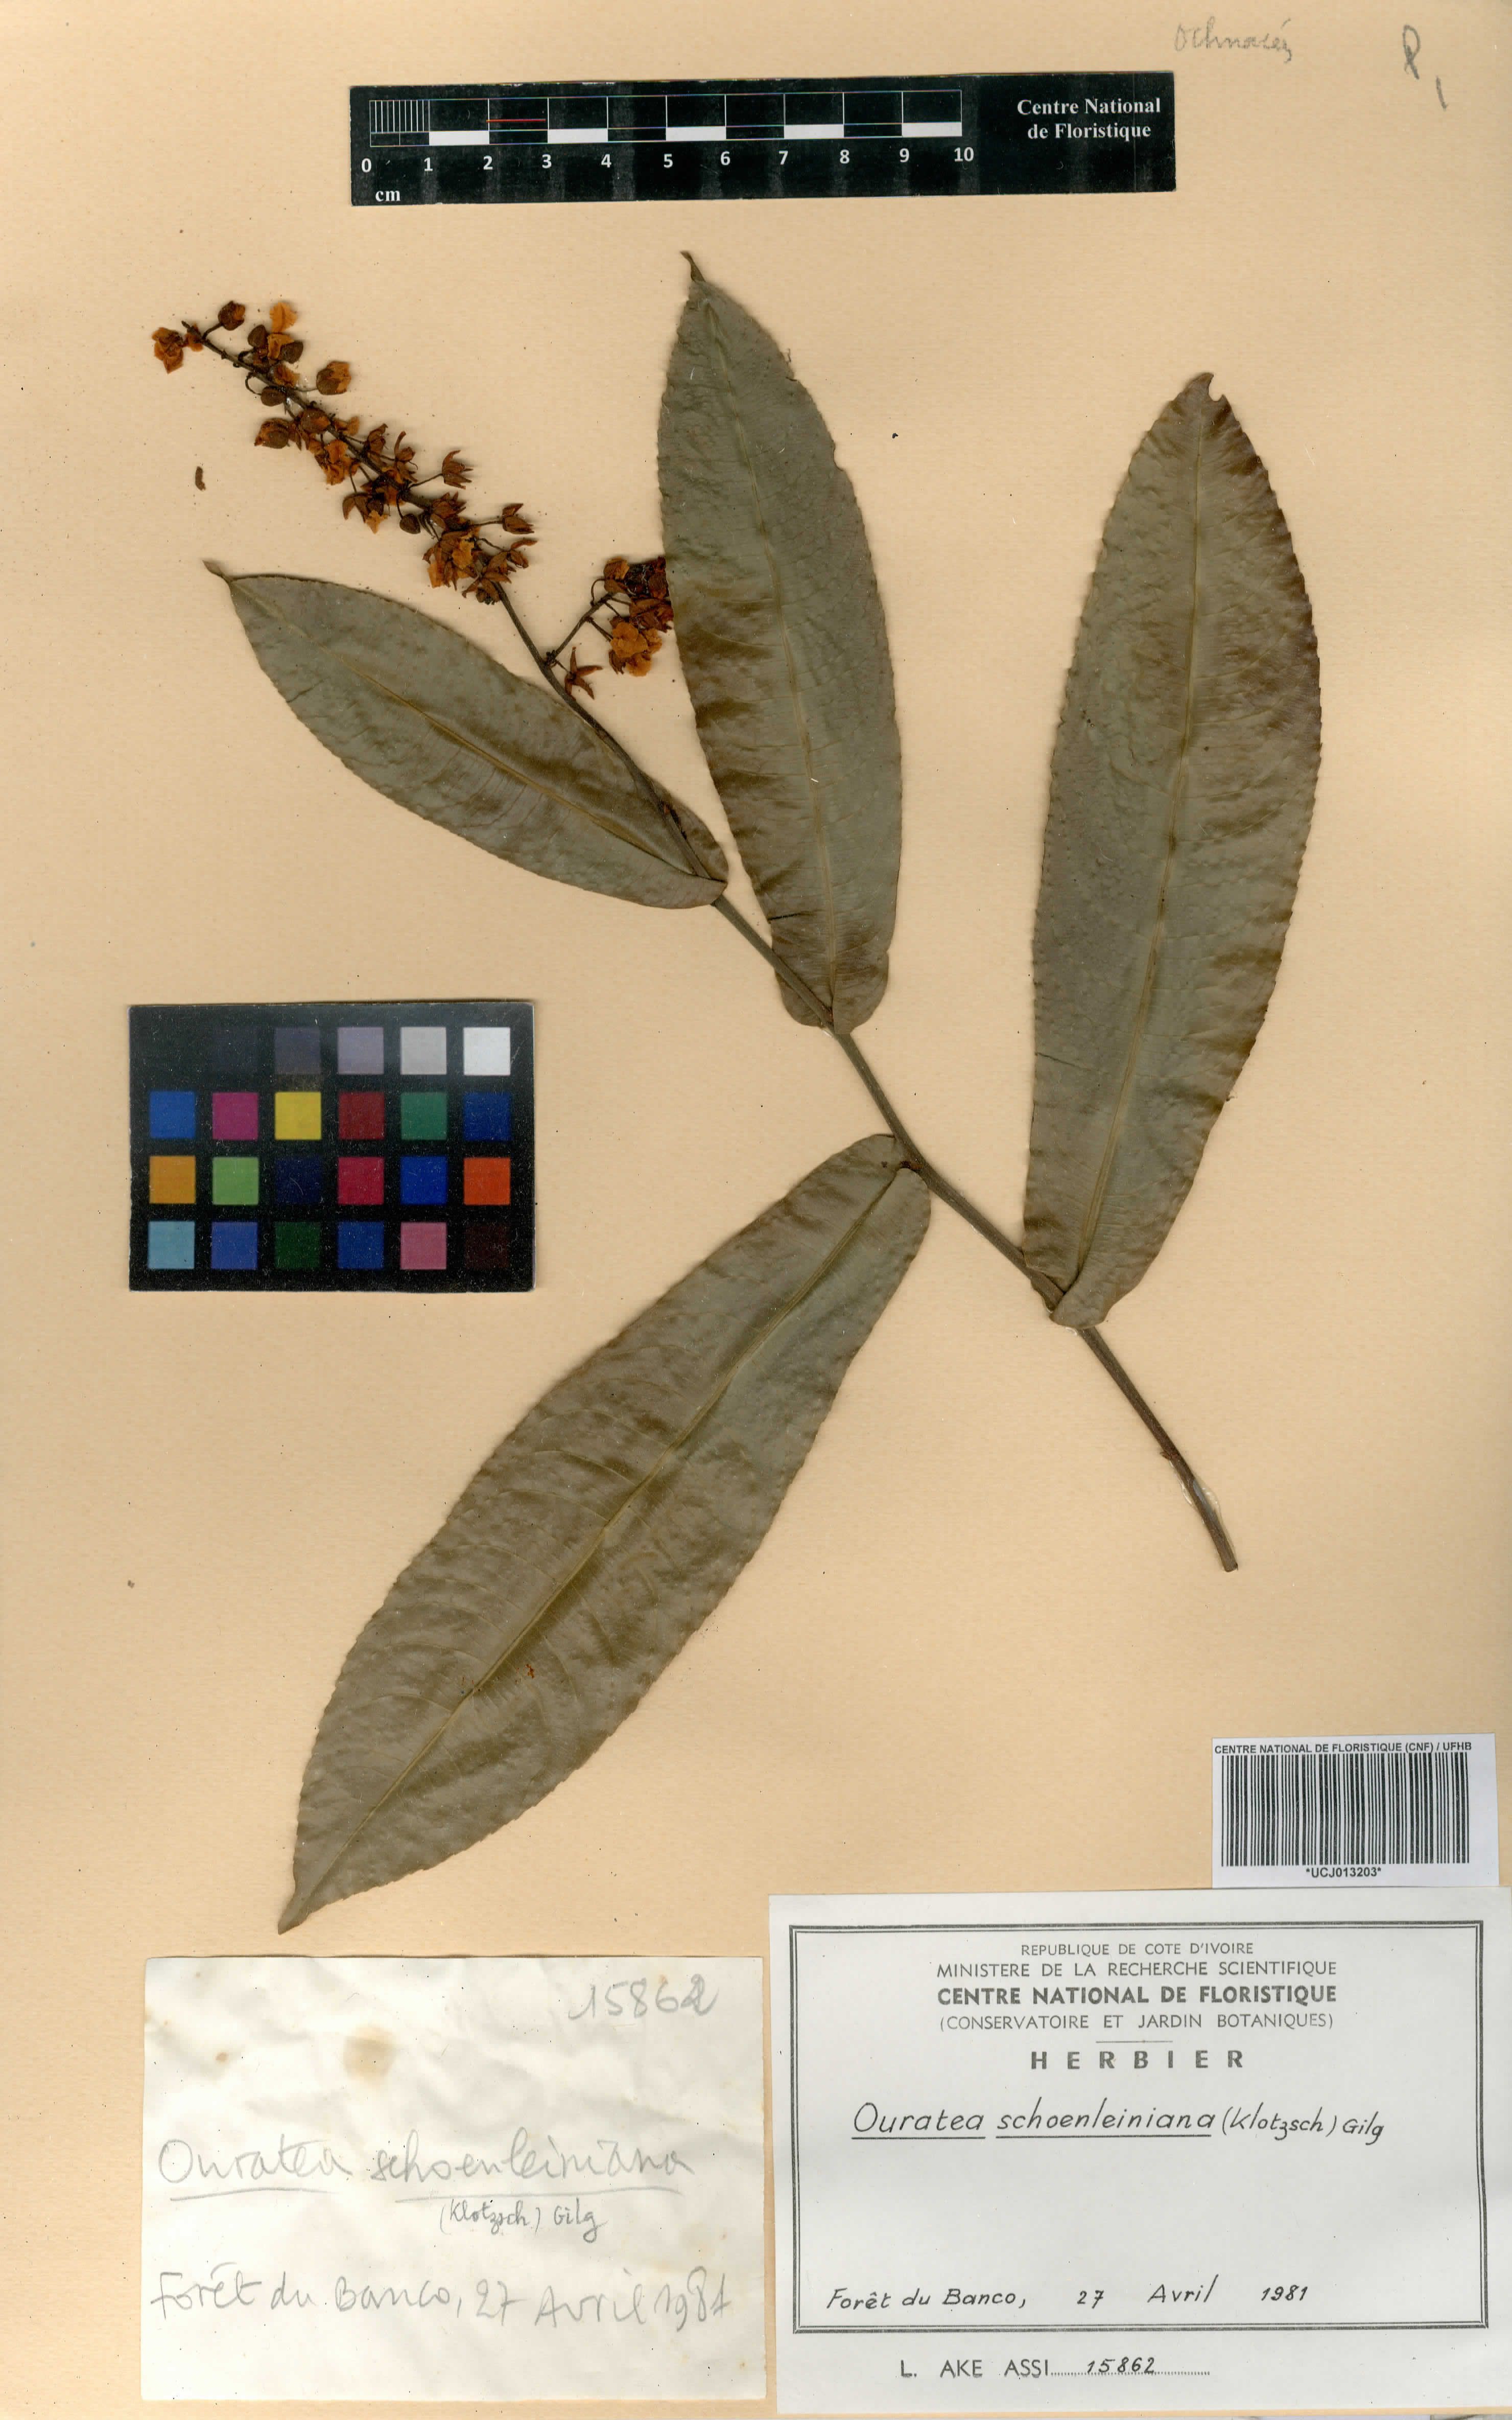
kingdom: Plantae
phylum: Tracheophyta
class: Magnoliopsida
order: Malpighiales
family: Ochnaceae
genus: Campylospermum
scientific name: Campylospermum schoenleinianum
